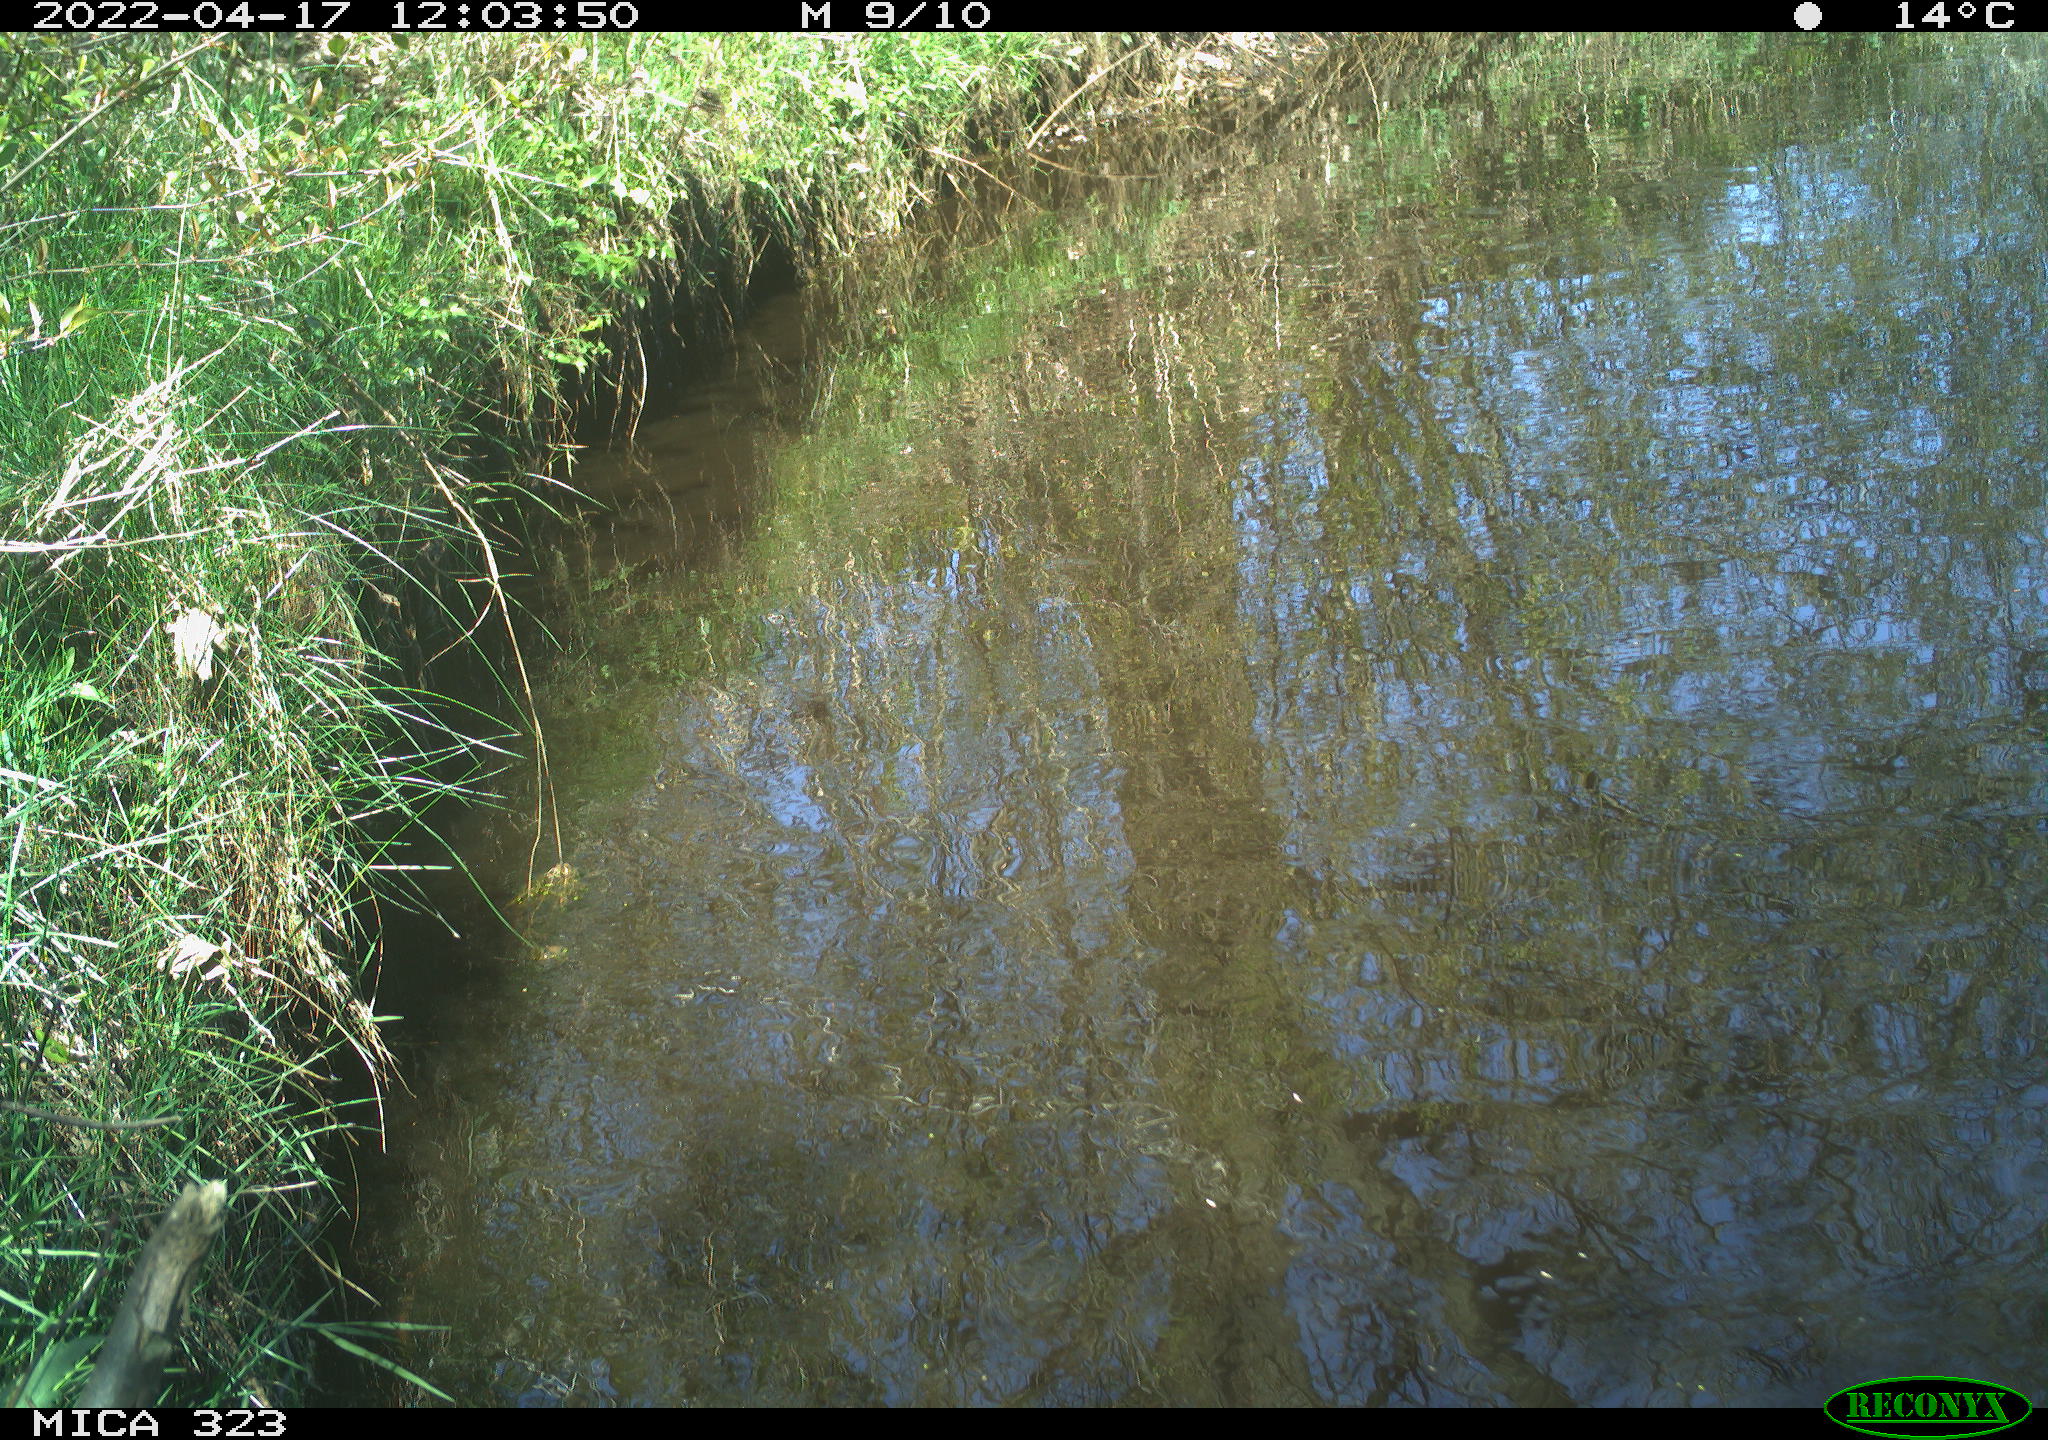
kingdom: Animalia
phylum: Chordata
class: Aves
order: Gruiformes
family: Rallidae
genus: Gallinula
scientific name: Gallinula chloropus
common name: Common moorhen
